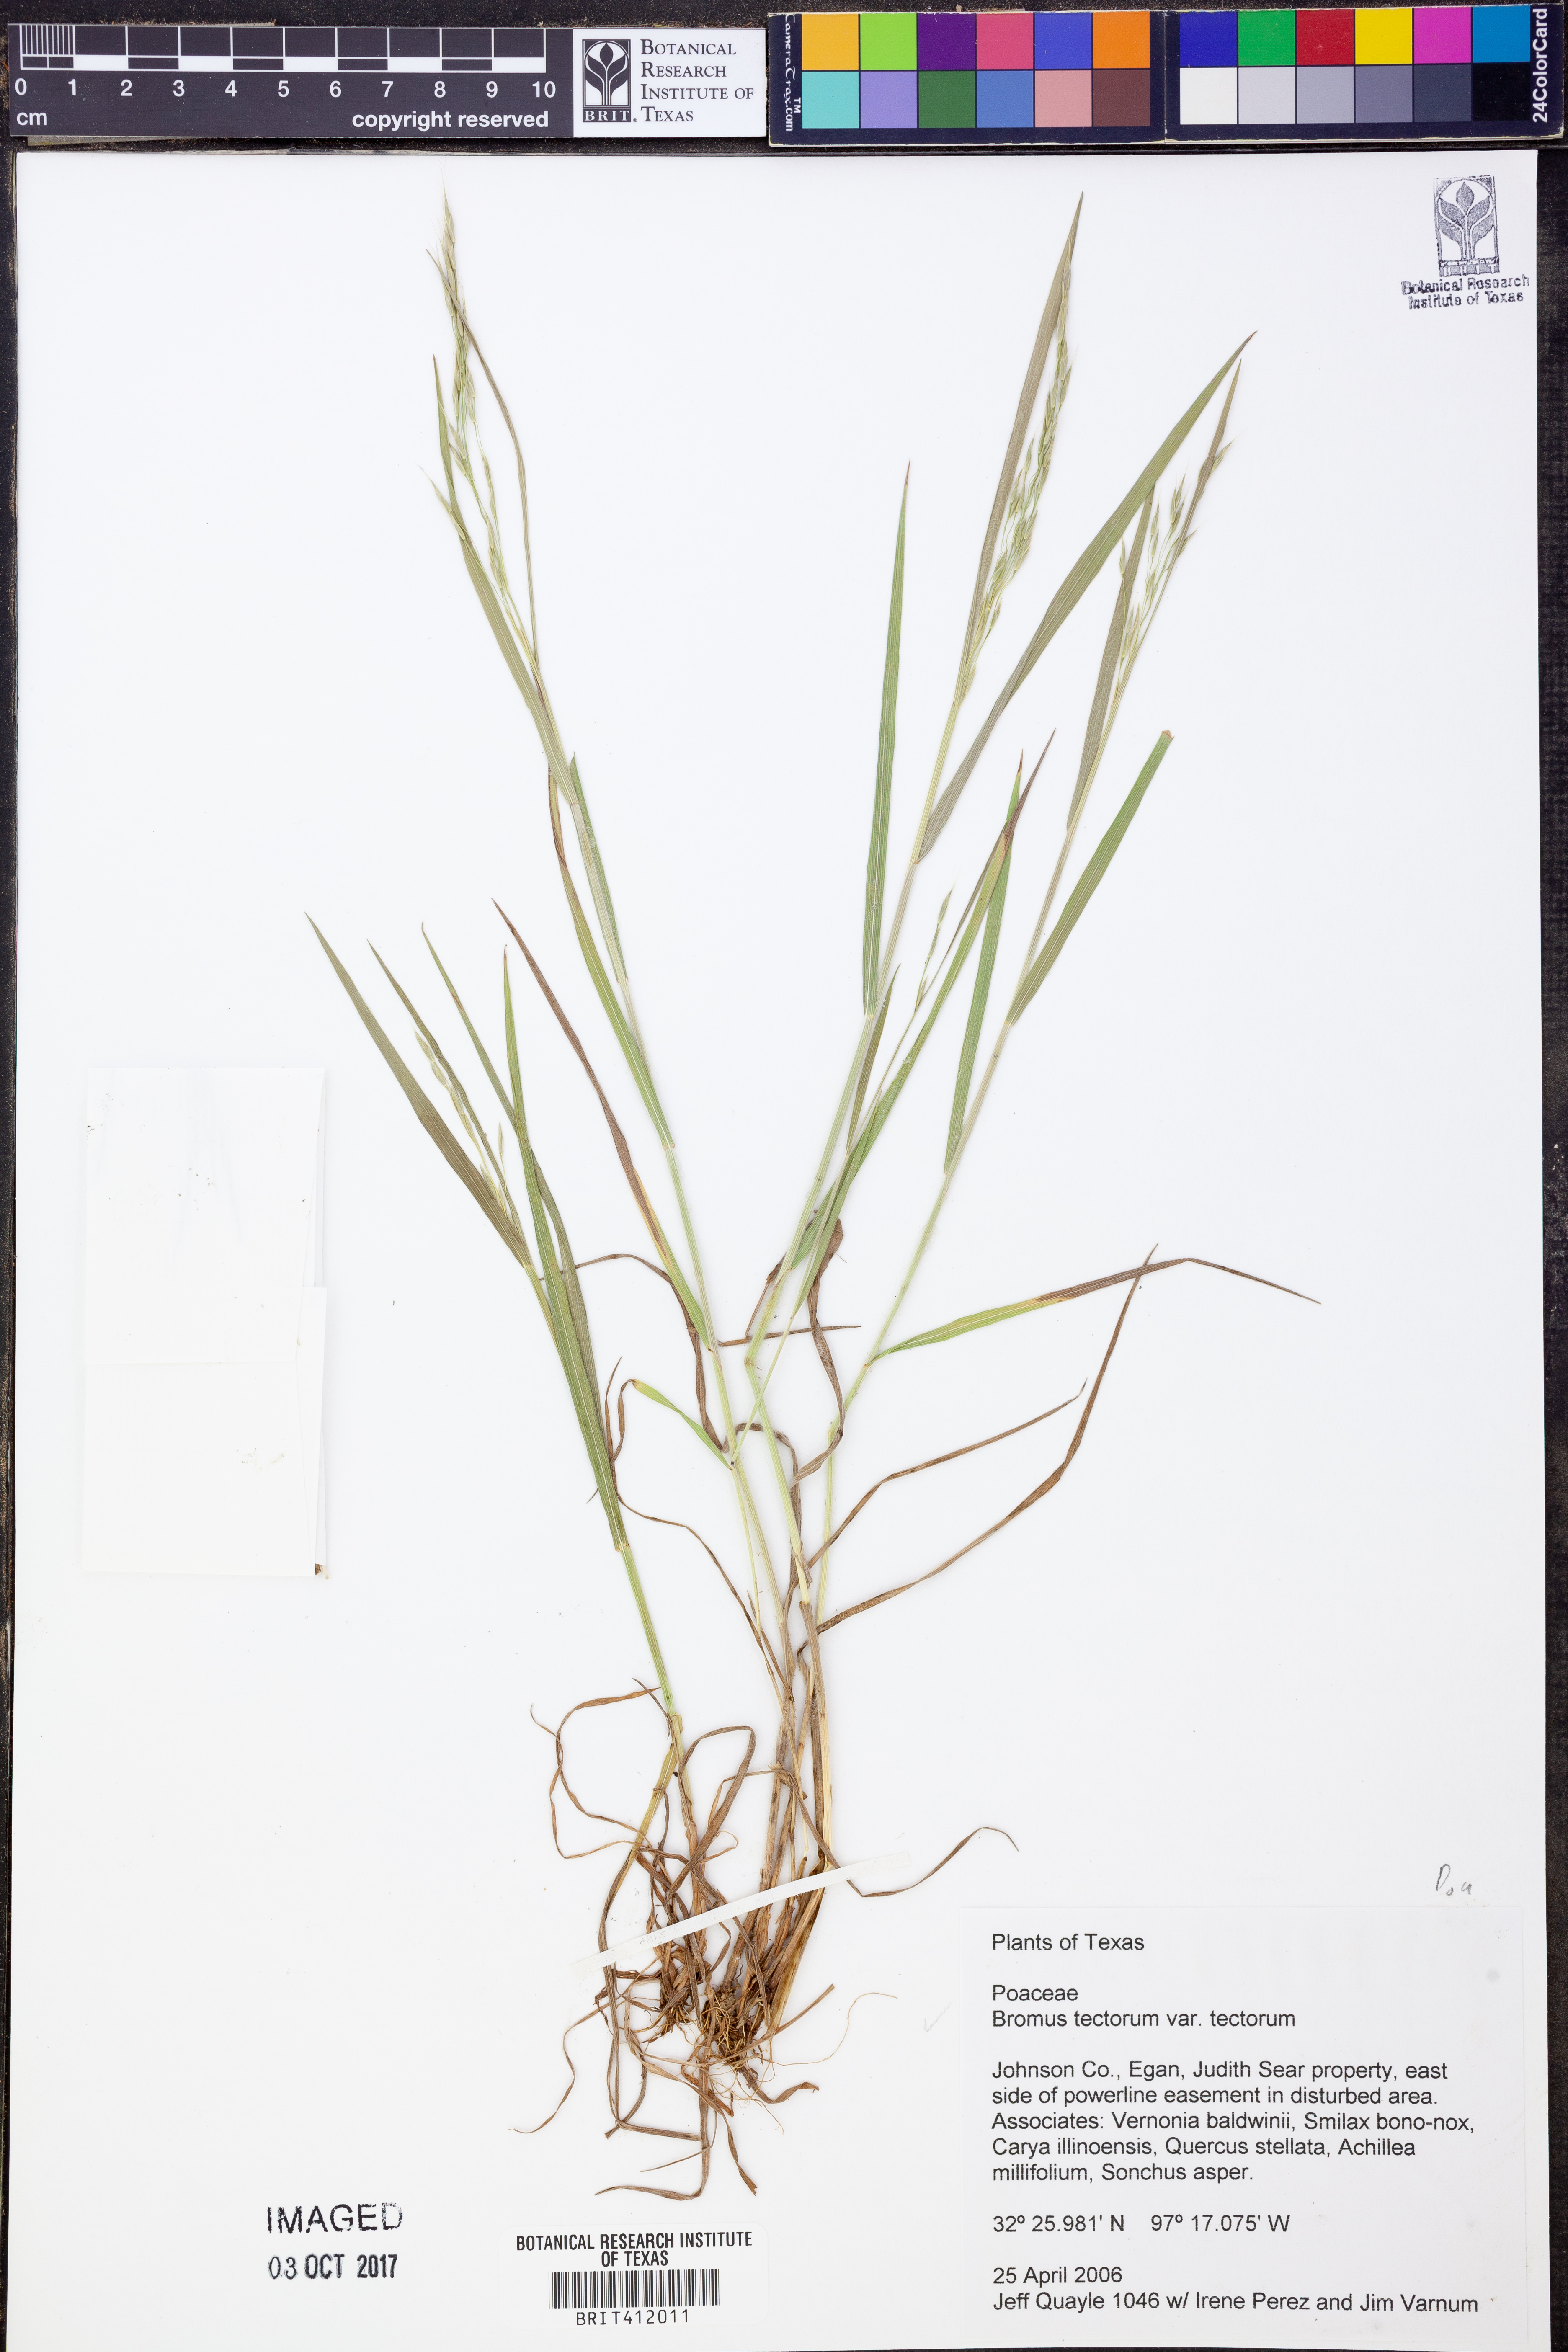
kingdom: Plantae
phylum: Tracheophyta
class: Liliopsida
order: Poales
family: Poaceae
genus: Bromus
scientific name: Bromus tectorum
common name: Cheatgrass
